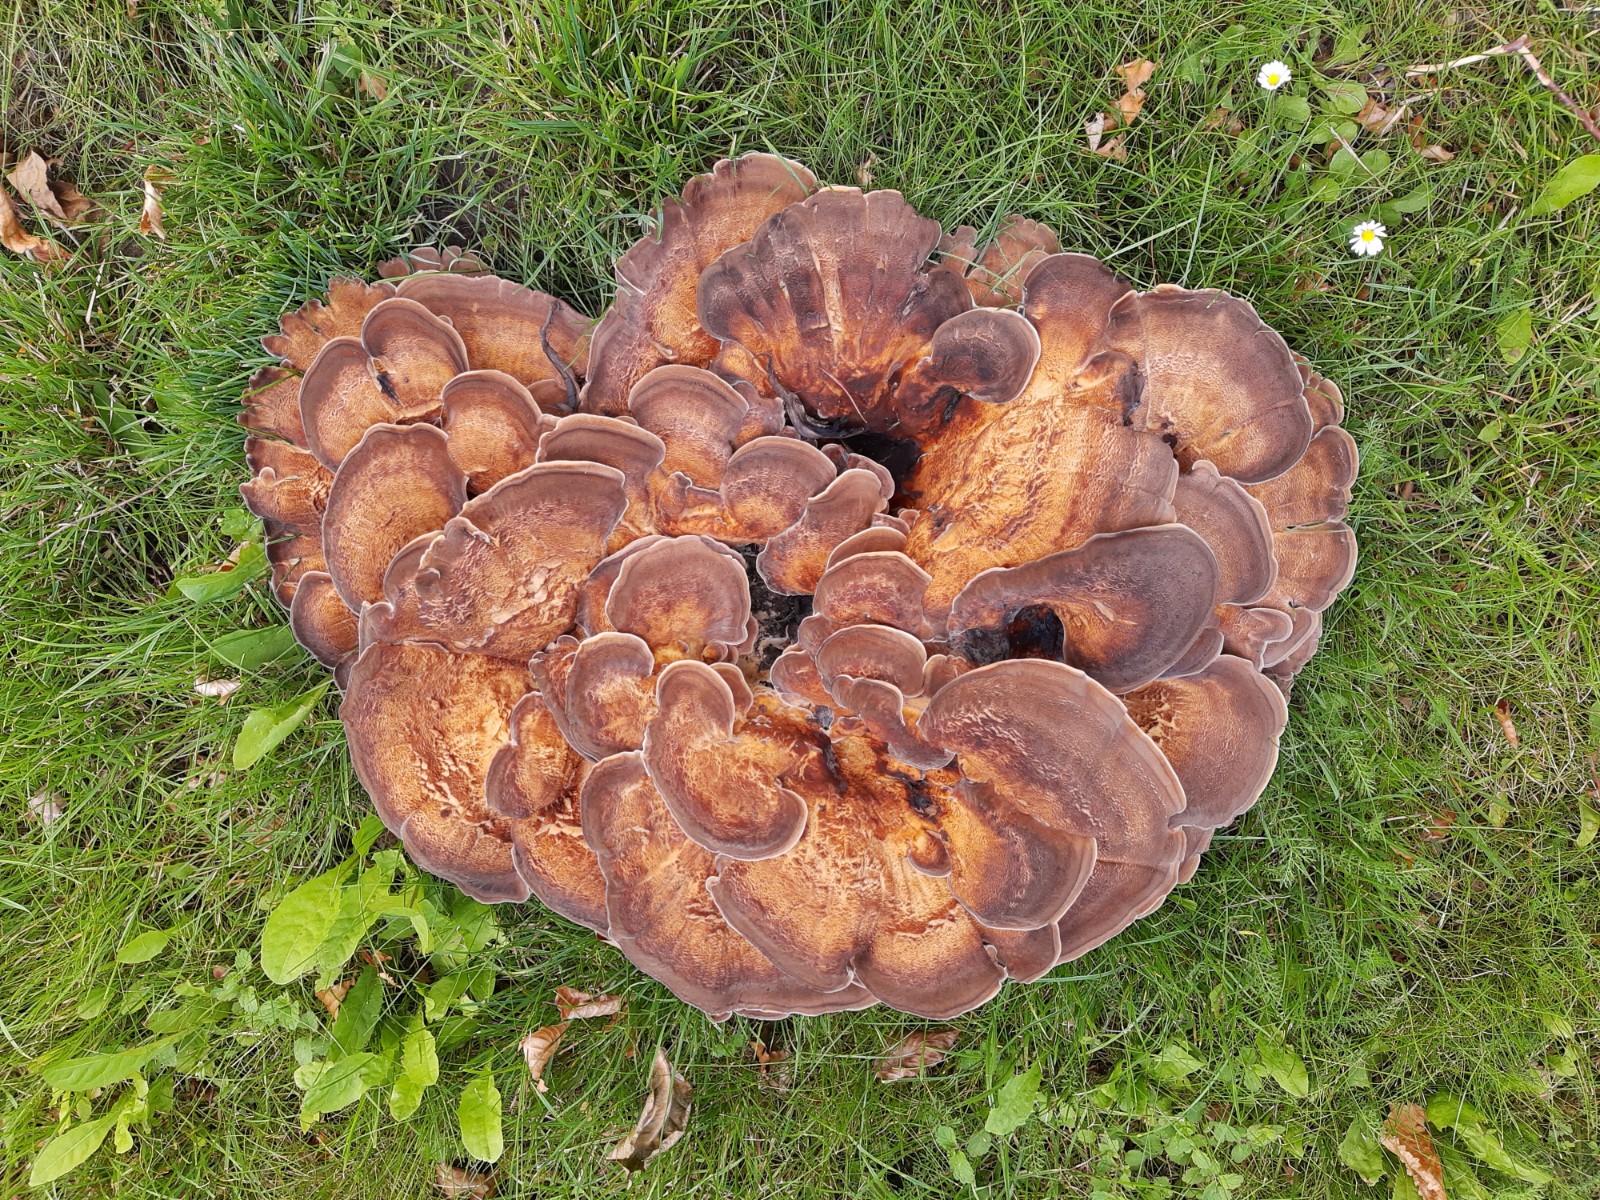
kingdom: Fungi
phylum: Basidiomycota
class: Agaricomycetes
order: Polyporales
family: Meripilaceae
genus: Meripilus
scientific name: Meripilus giganteus
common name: kæmpeporesvamp
